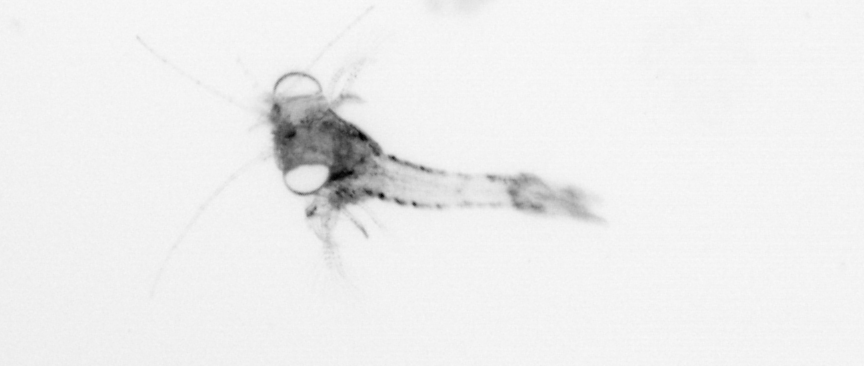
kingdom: Animalia
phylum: Arthropoda
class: Malacostraca
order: Decapoda
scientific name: Decapoda
